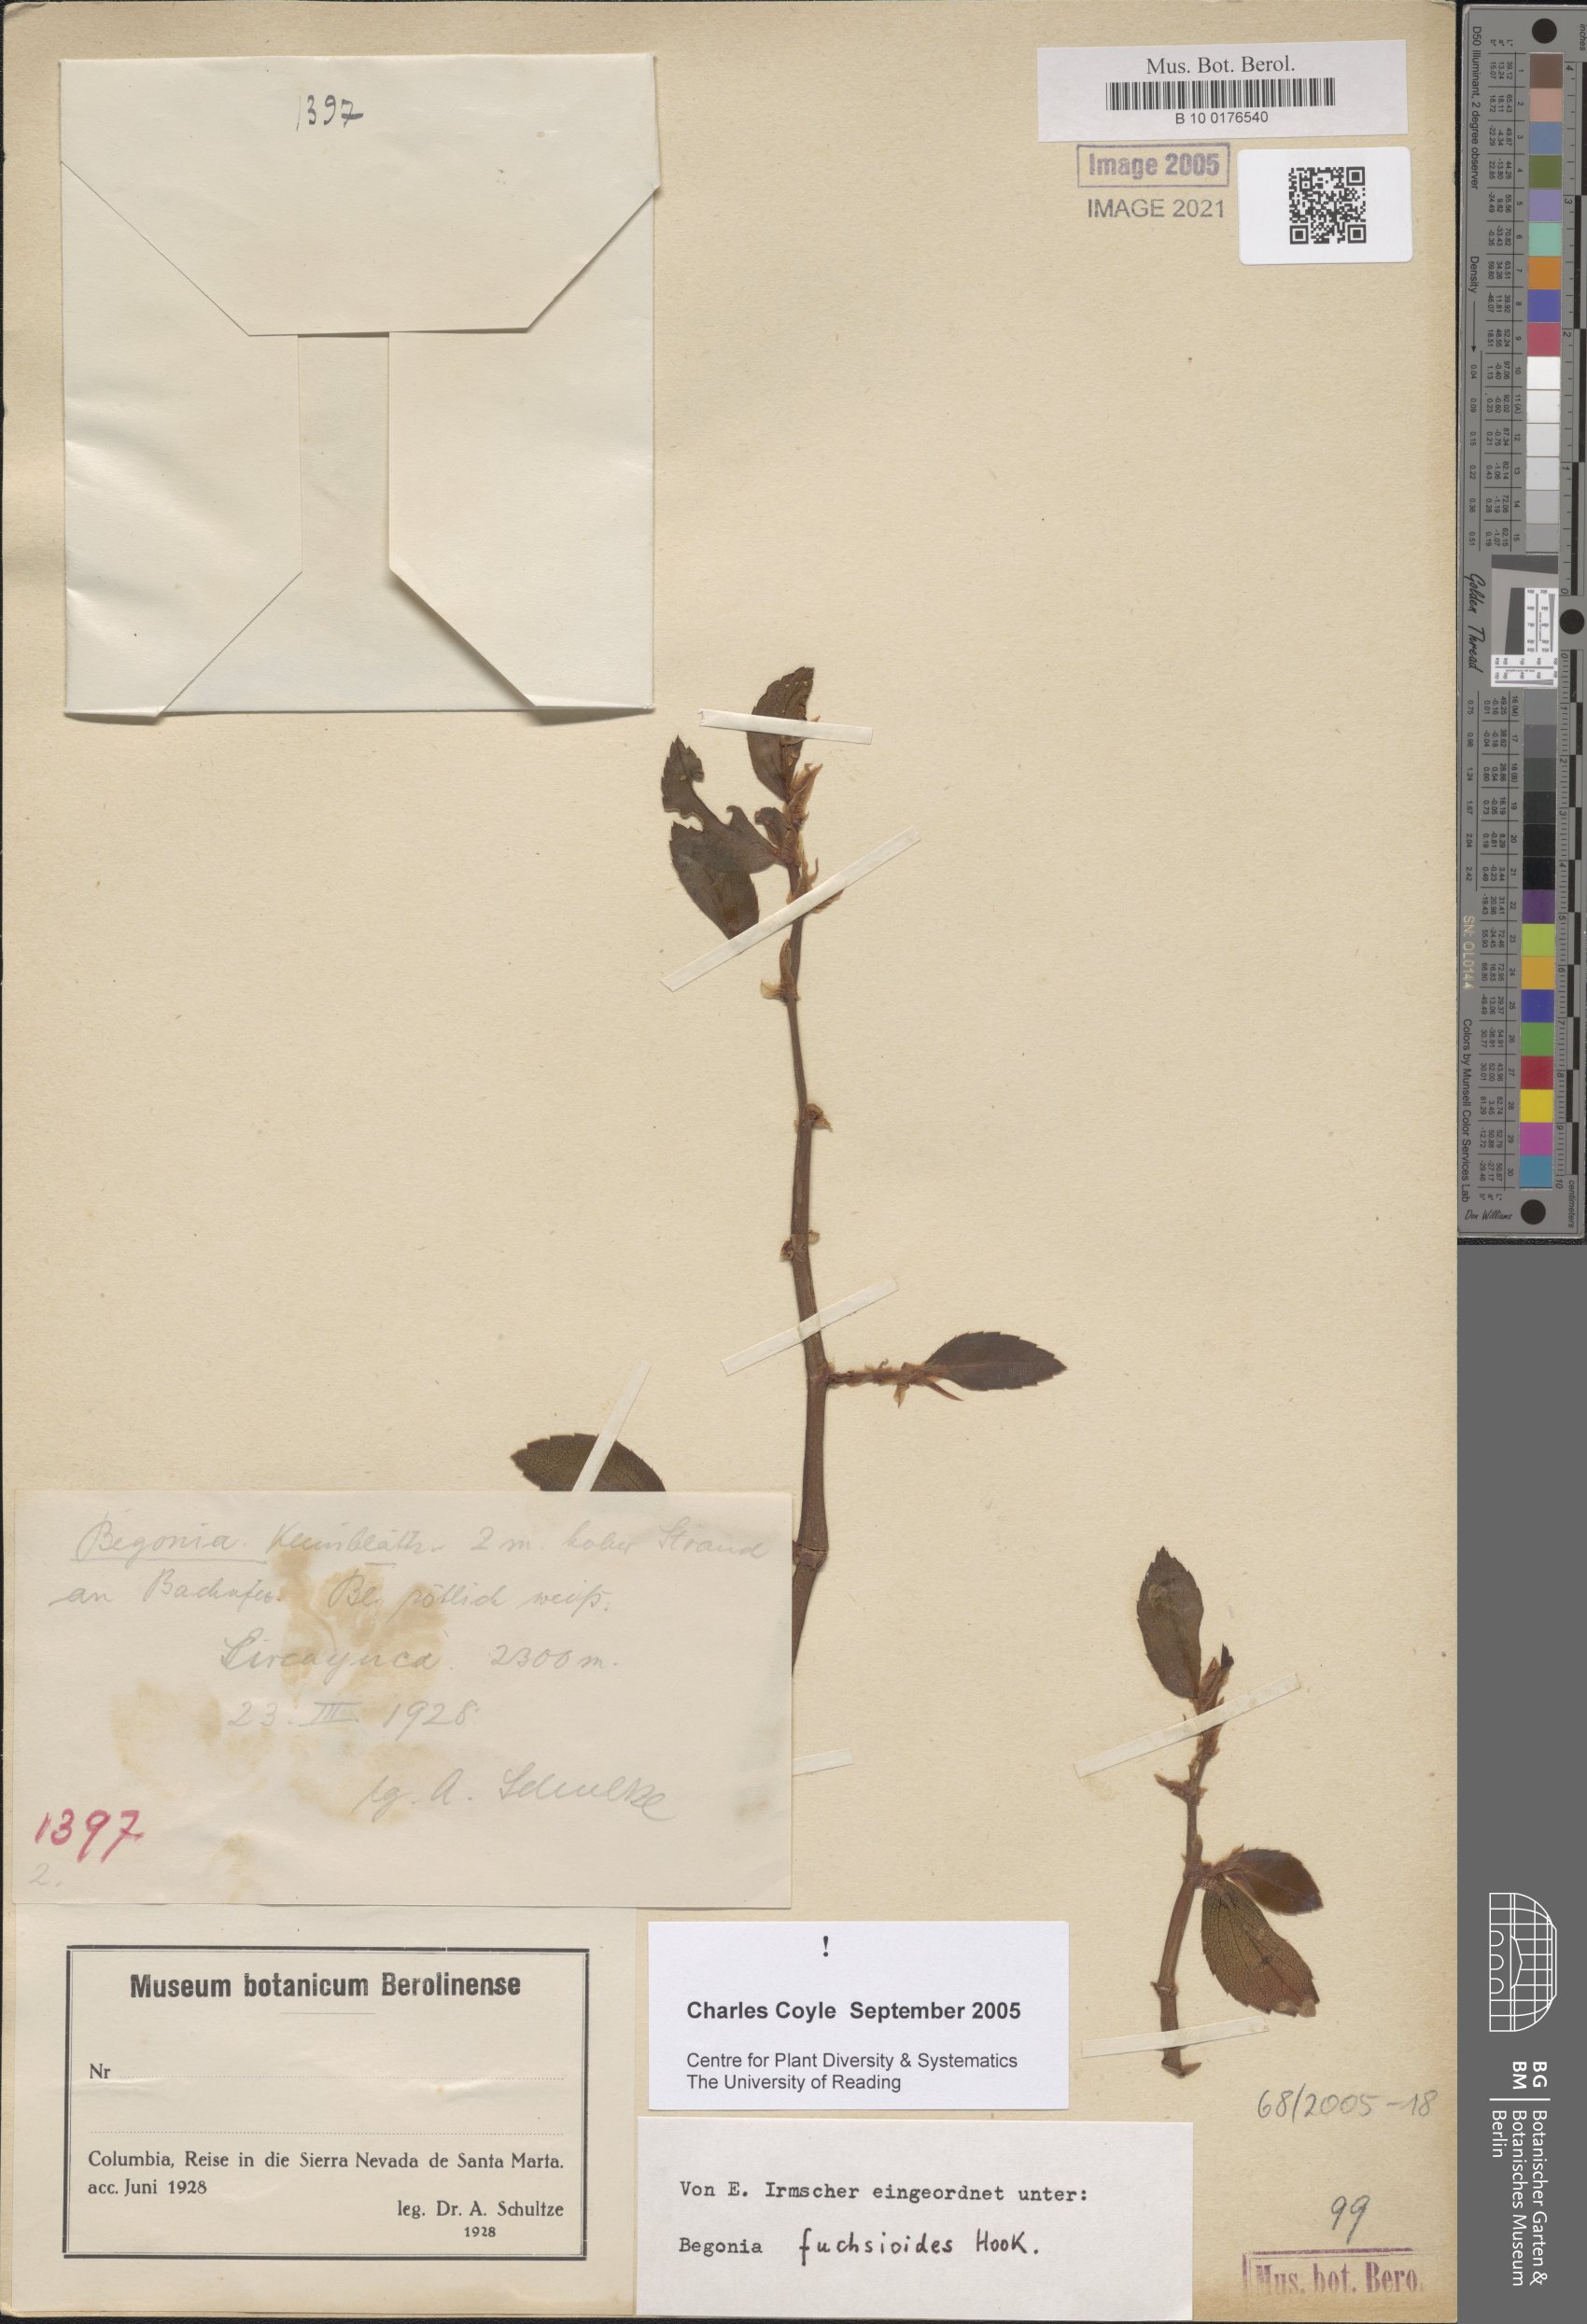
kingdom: Plantae
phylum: Tracheophyta
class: Magnoliopsida
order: Cucurbitales
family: Begoniaceae
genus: Begonia
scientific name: Begonia fuchsioides
